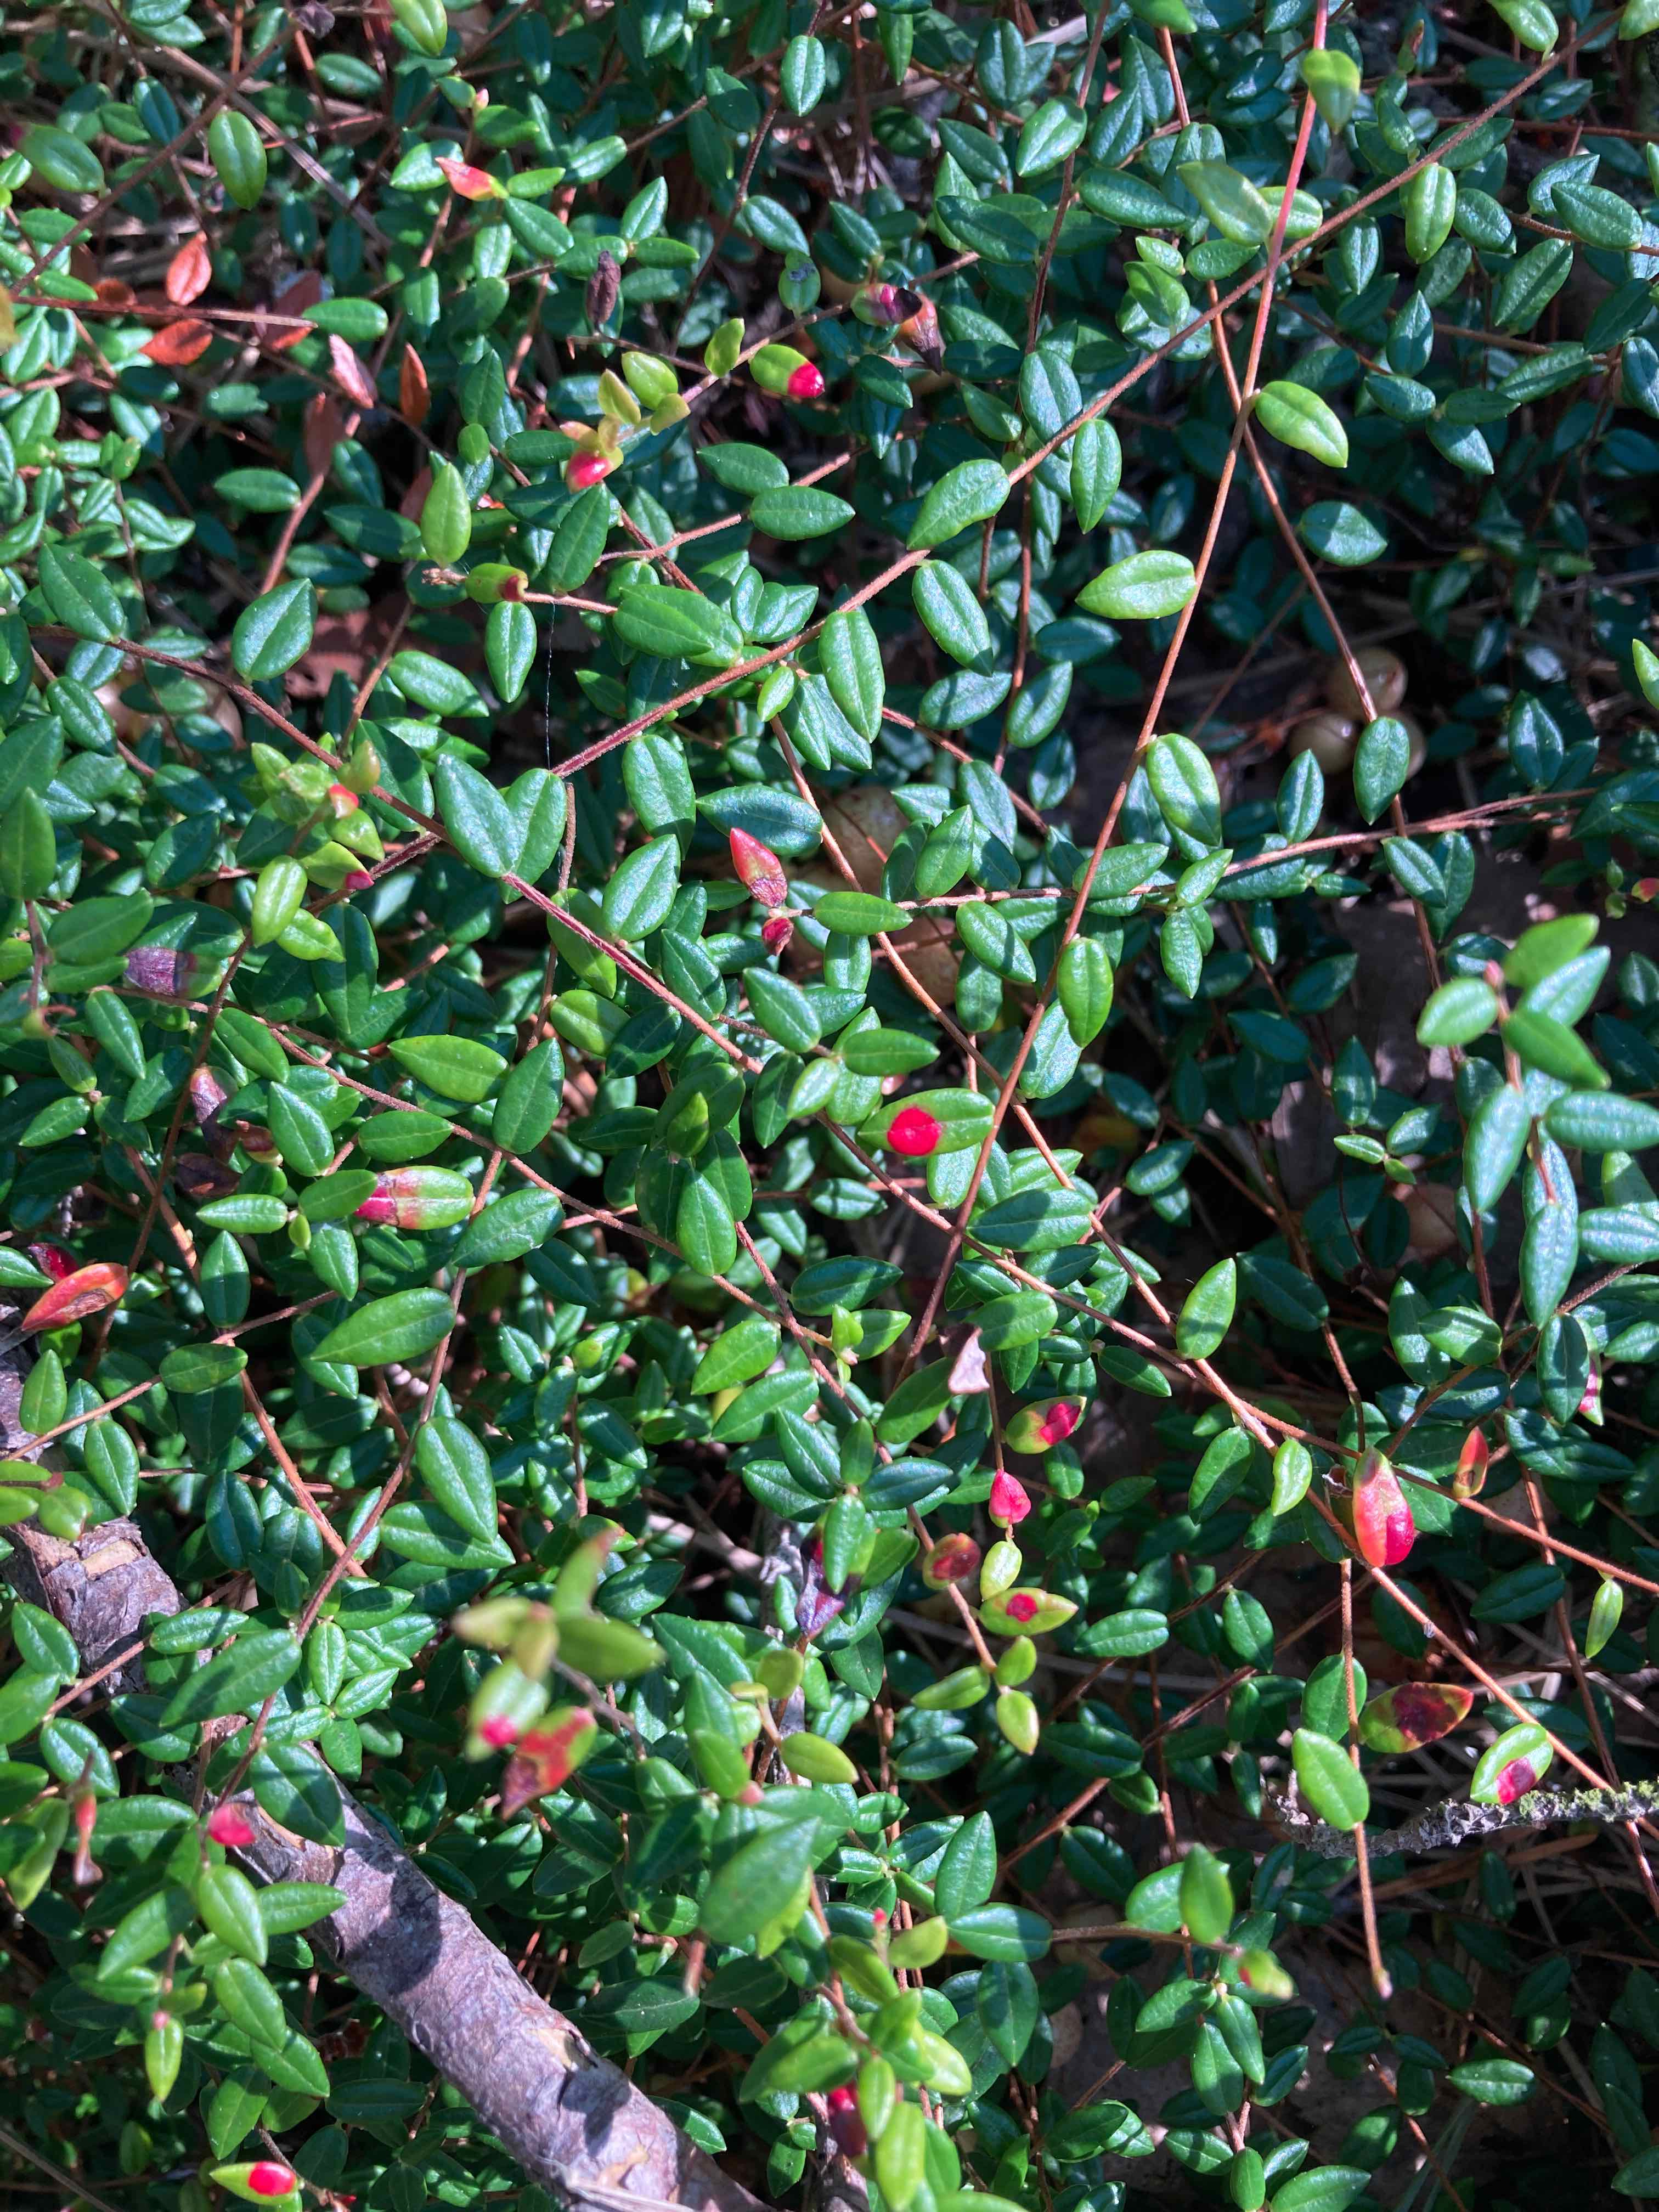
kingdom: Fungi
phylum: Basidiomycota
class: Exobasidiomycetes
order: Exobasidiales
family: Exobasidiaceae
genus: Exobasidium
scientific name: Exobasidium rostrupii
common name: tranebærblad-bøllesvamp
